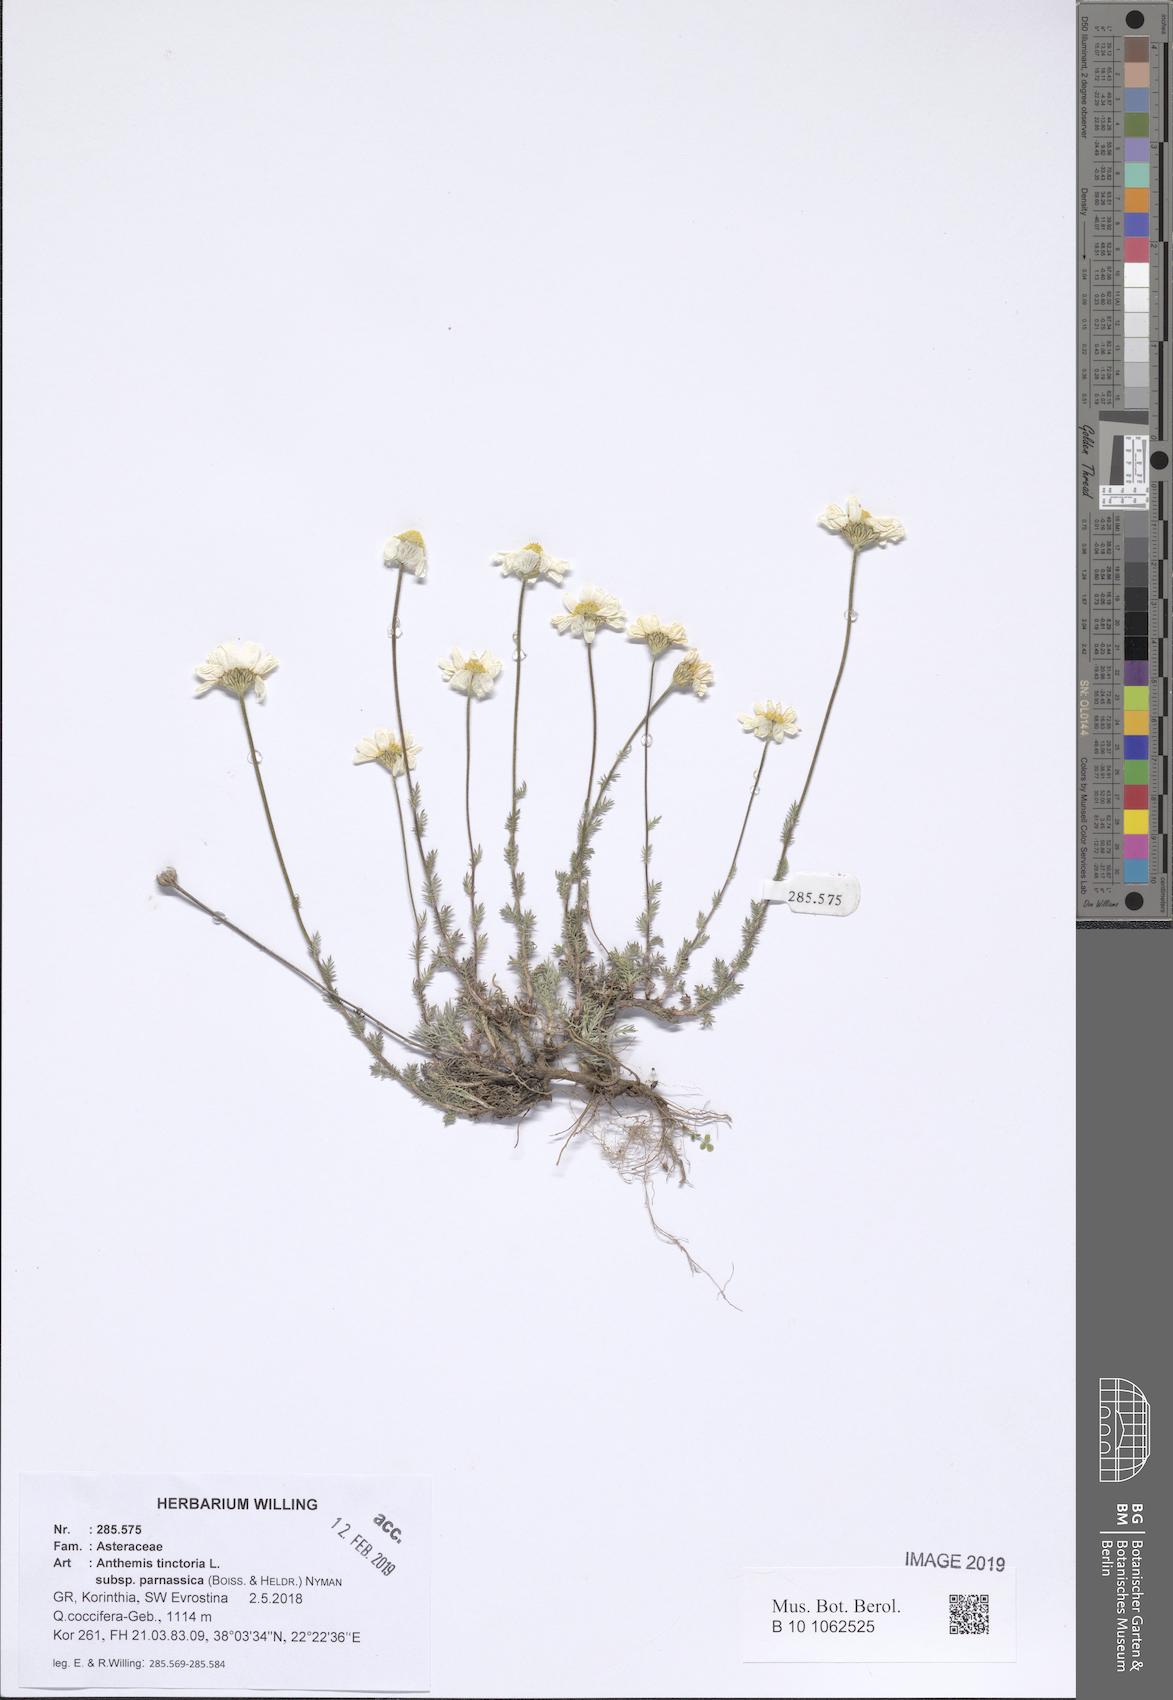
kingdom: Plantae
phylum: Tracheophyta
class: Magnoliopsida
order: Asterales
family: Asteraceae
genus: Cota
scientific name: Cota tinctoria
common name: Golden chamomile
